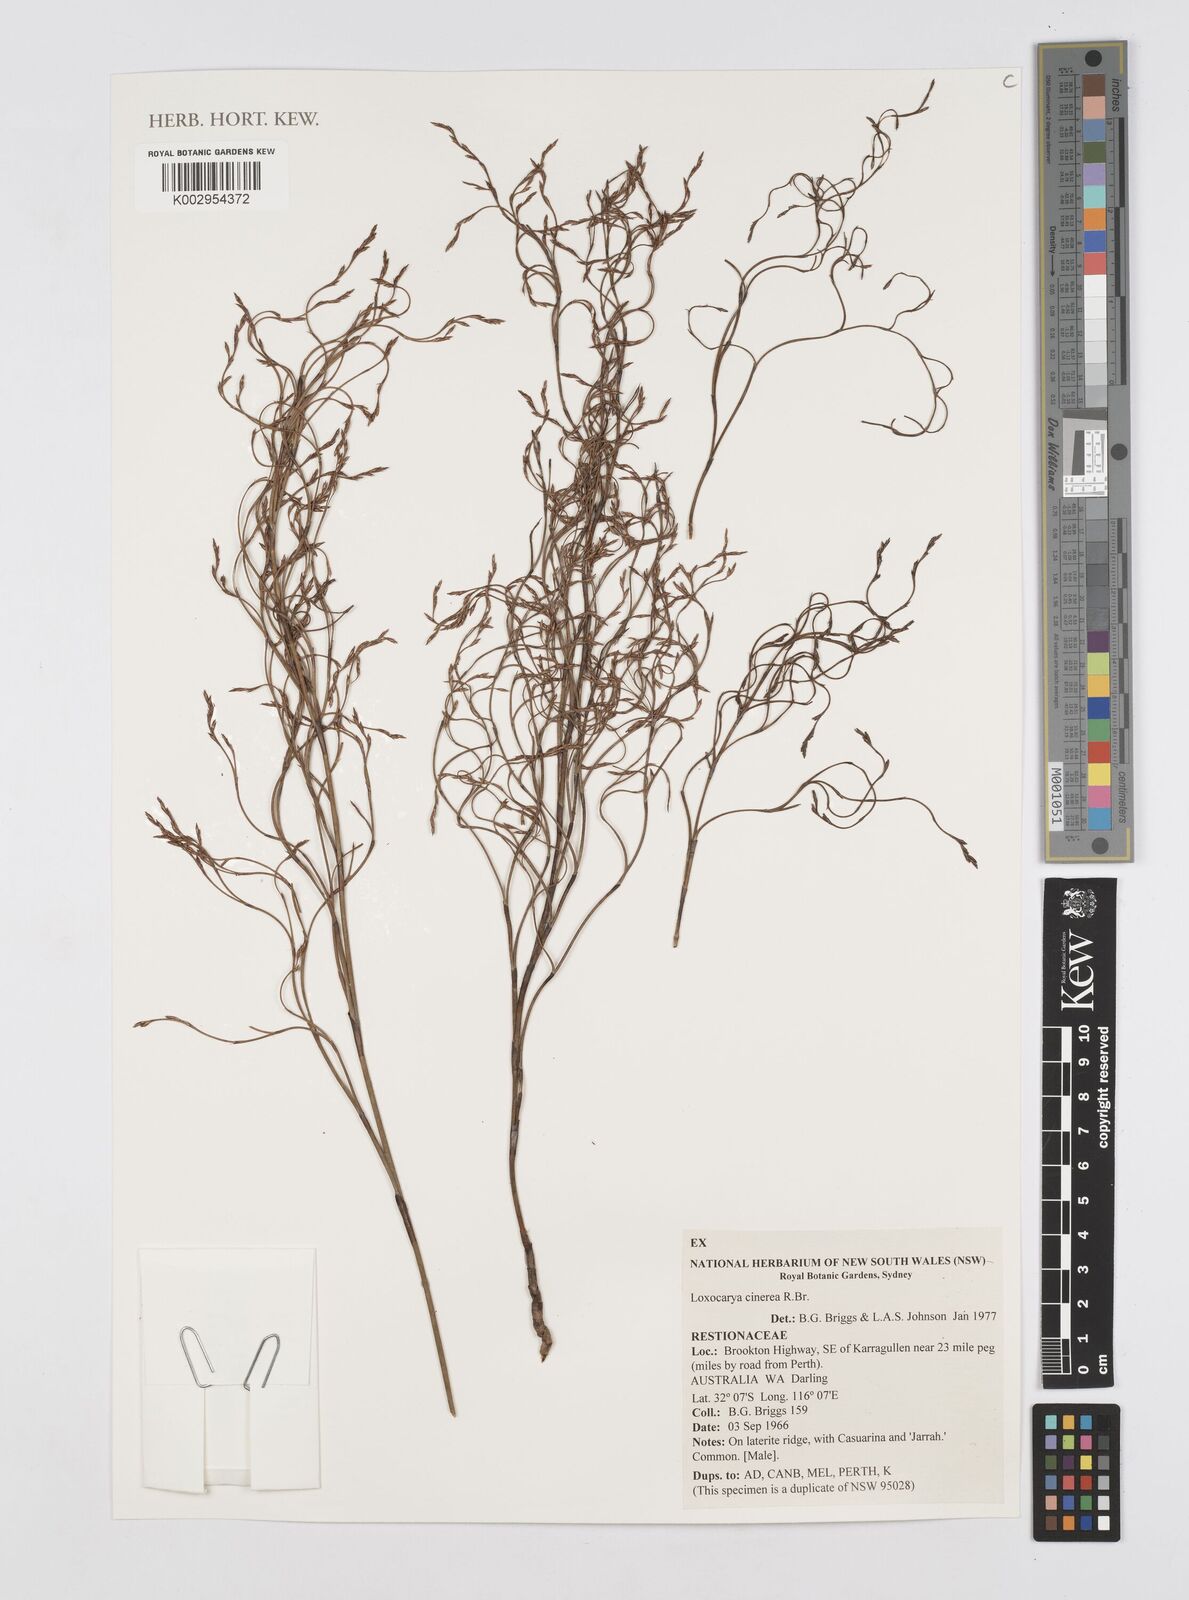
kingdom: Plantae
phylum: Tracheophyta
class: Liliopsida
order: Poales
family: Restionaceae
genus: Loxocarya
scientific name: Loxocarya cinerea
